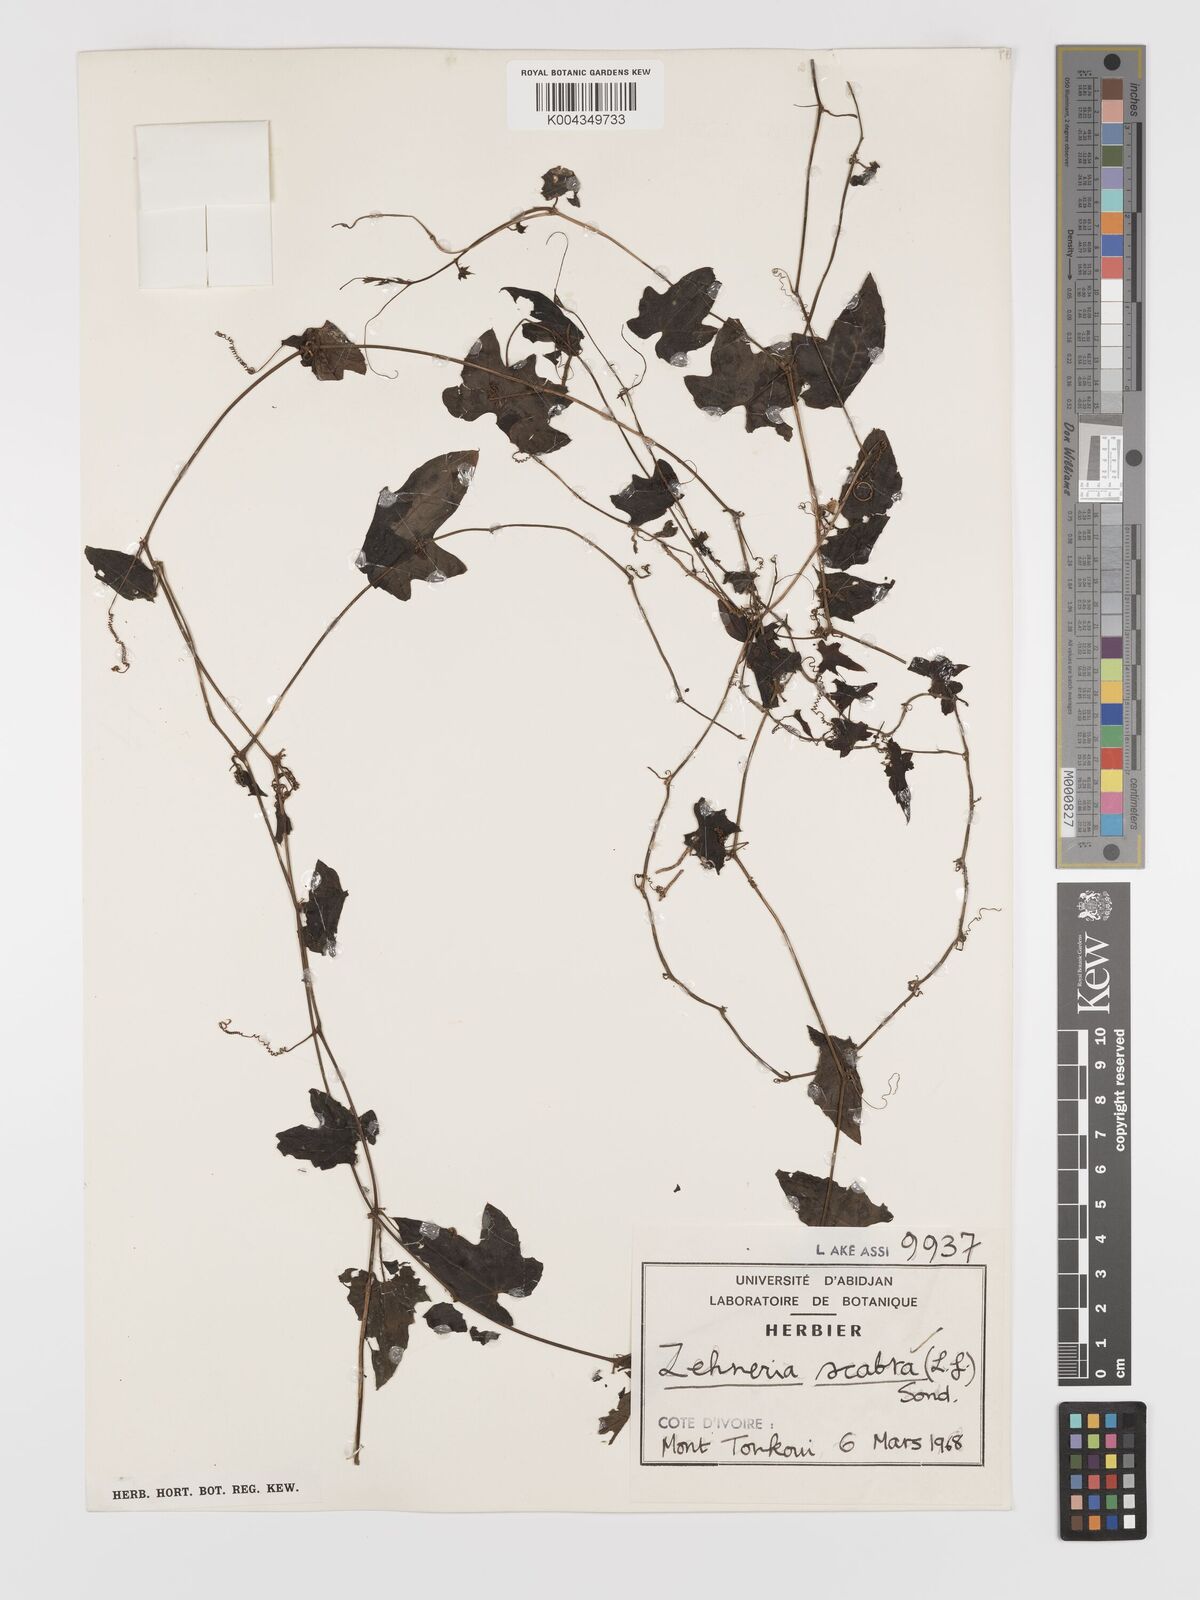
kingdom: Plantae
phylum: Tracheophyta
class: Magnoliopsida
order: Cucurbitales
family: Cucurbitaceae
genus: Zehneria
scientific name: Zehneria scabra
